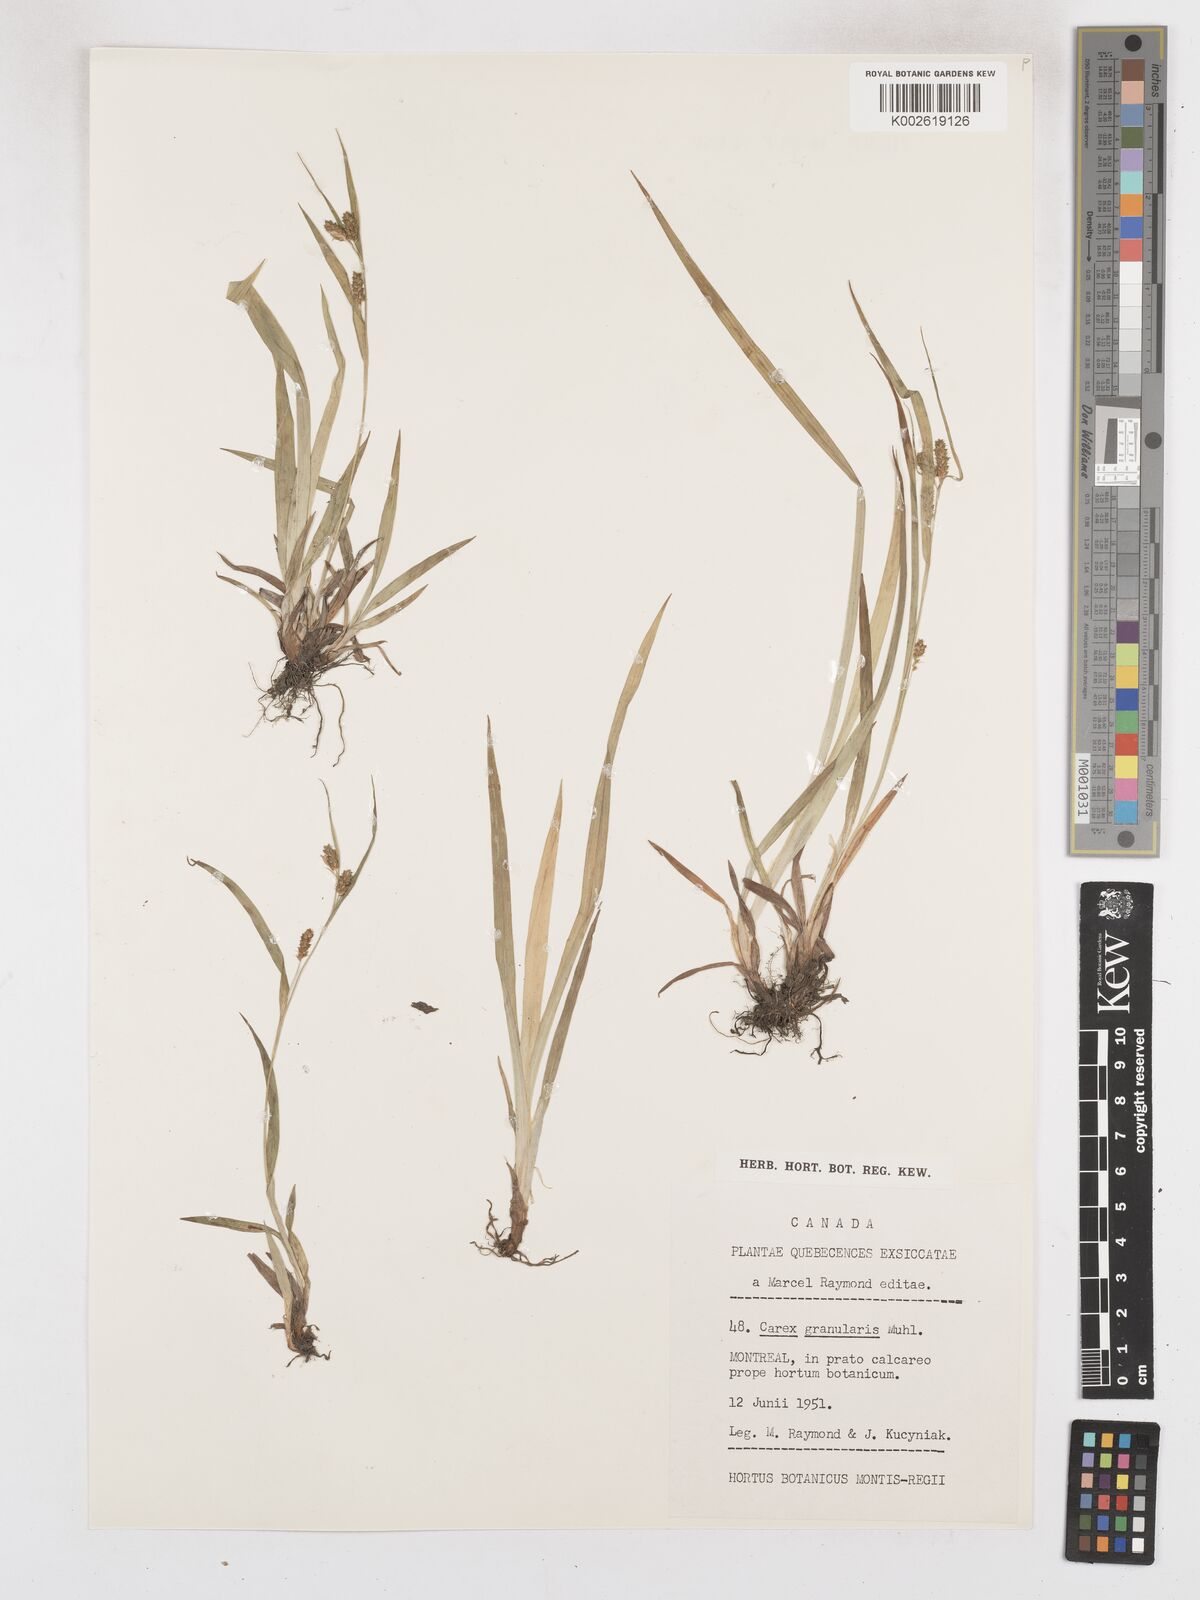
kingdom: Plantae
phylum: Tracheophyta
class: Liliopsida
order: Poales
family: Cyperaceae
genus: Carex
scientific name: Carex granularis
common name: Granular sedge
